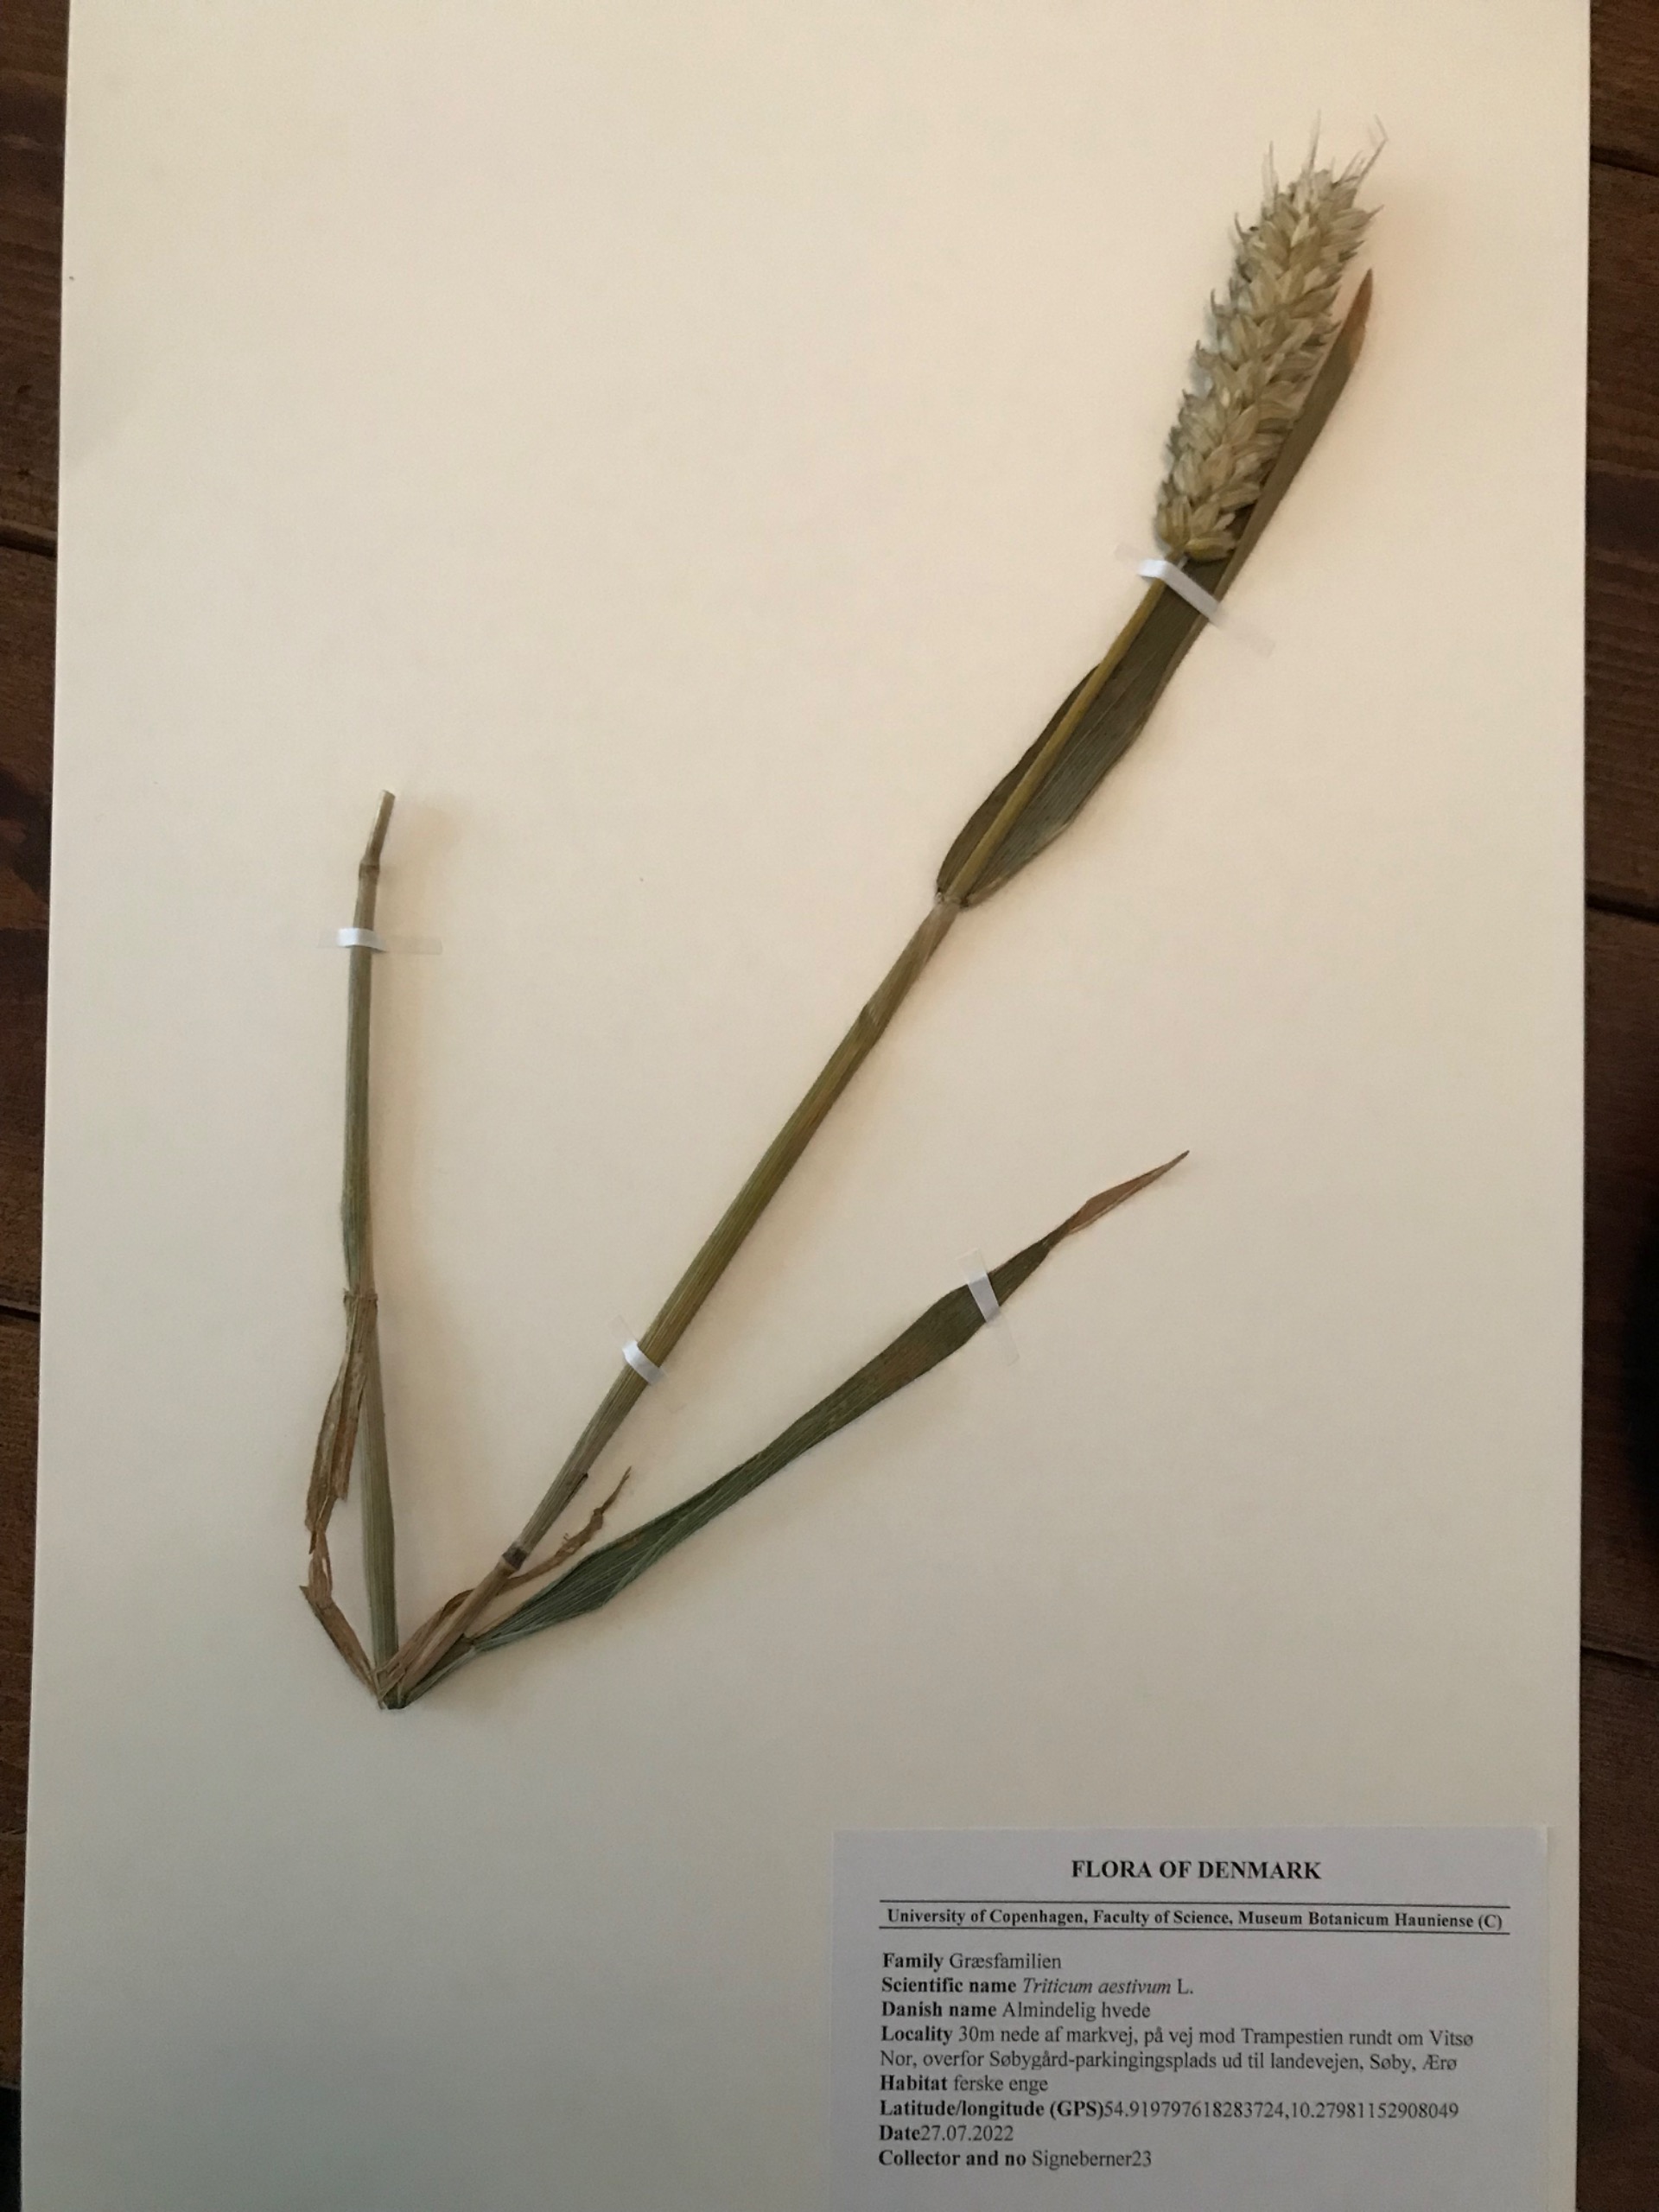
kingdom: Plantae
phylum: Tracheophyta
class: Liliopsida
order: Poales
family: Poaceae
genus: Triticum
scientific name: Triticum aestivum
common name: Almindelig hvede
